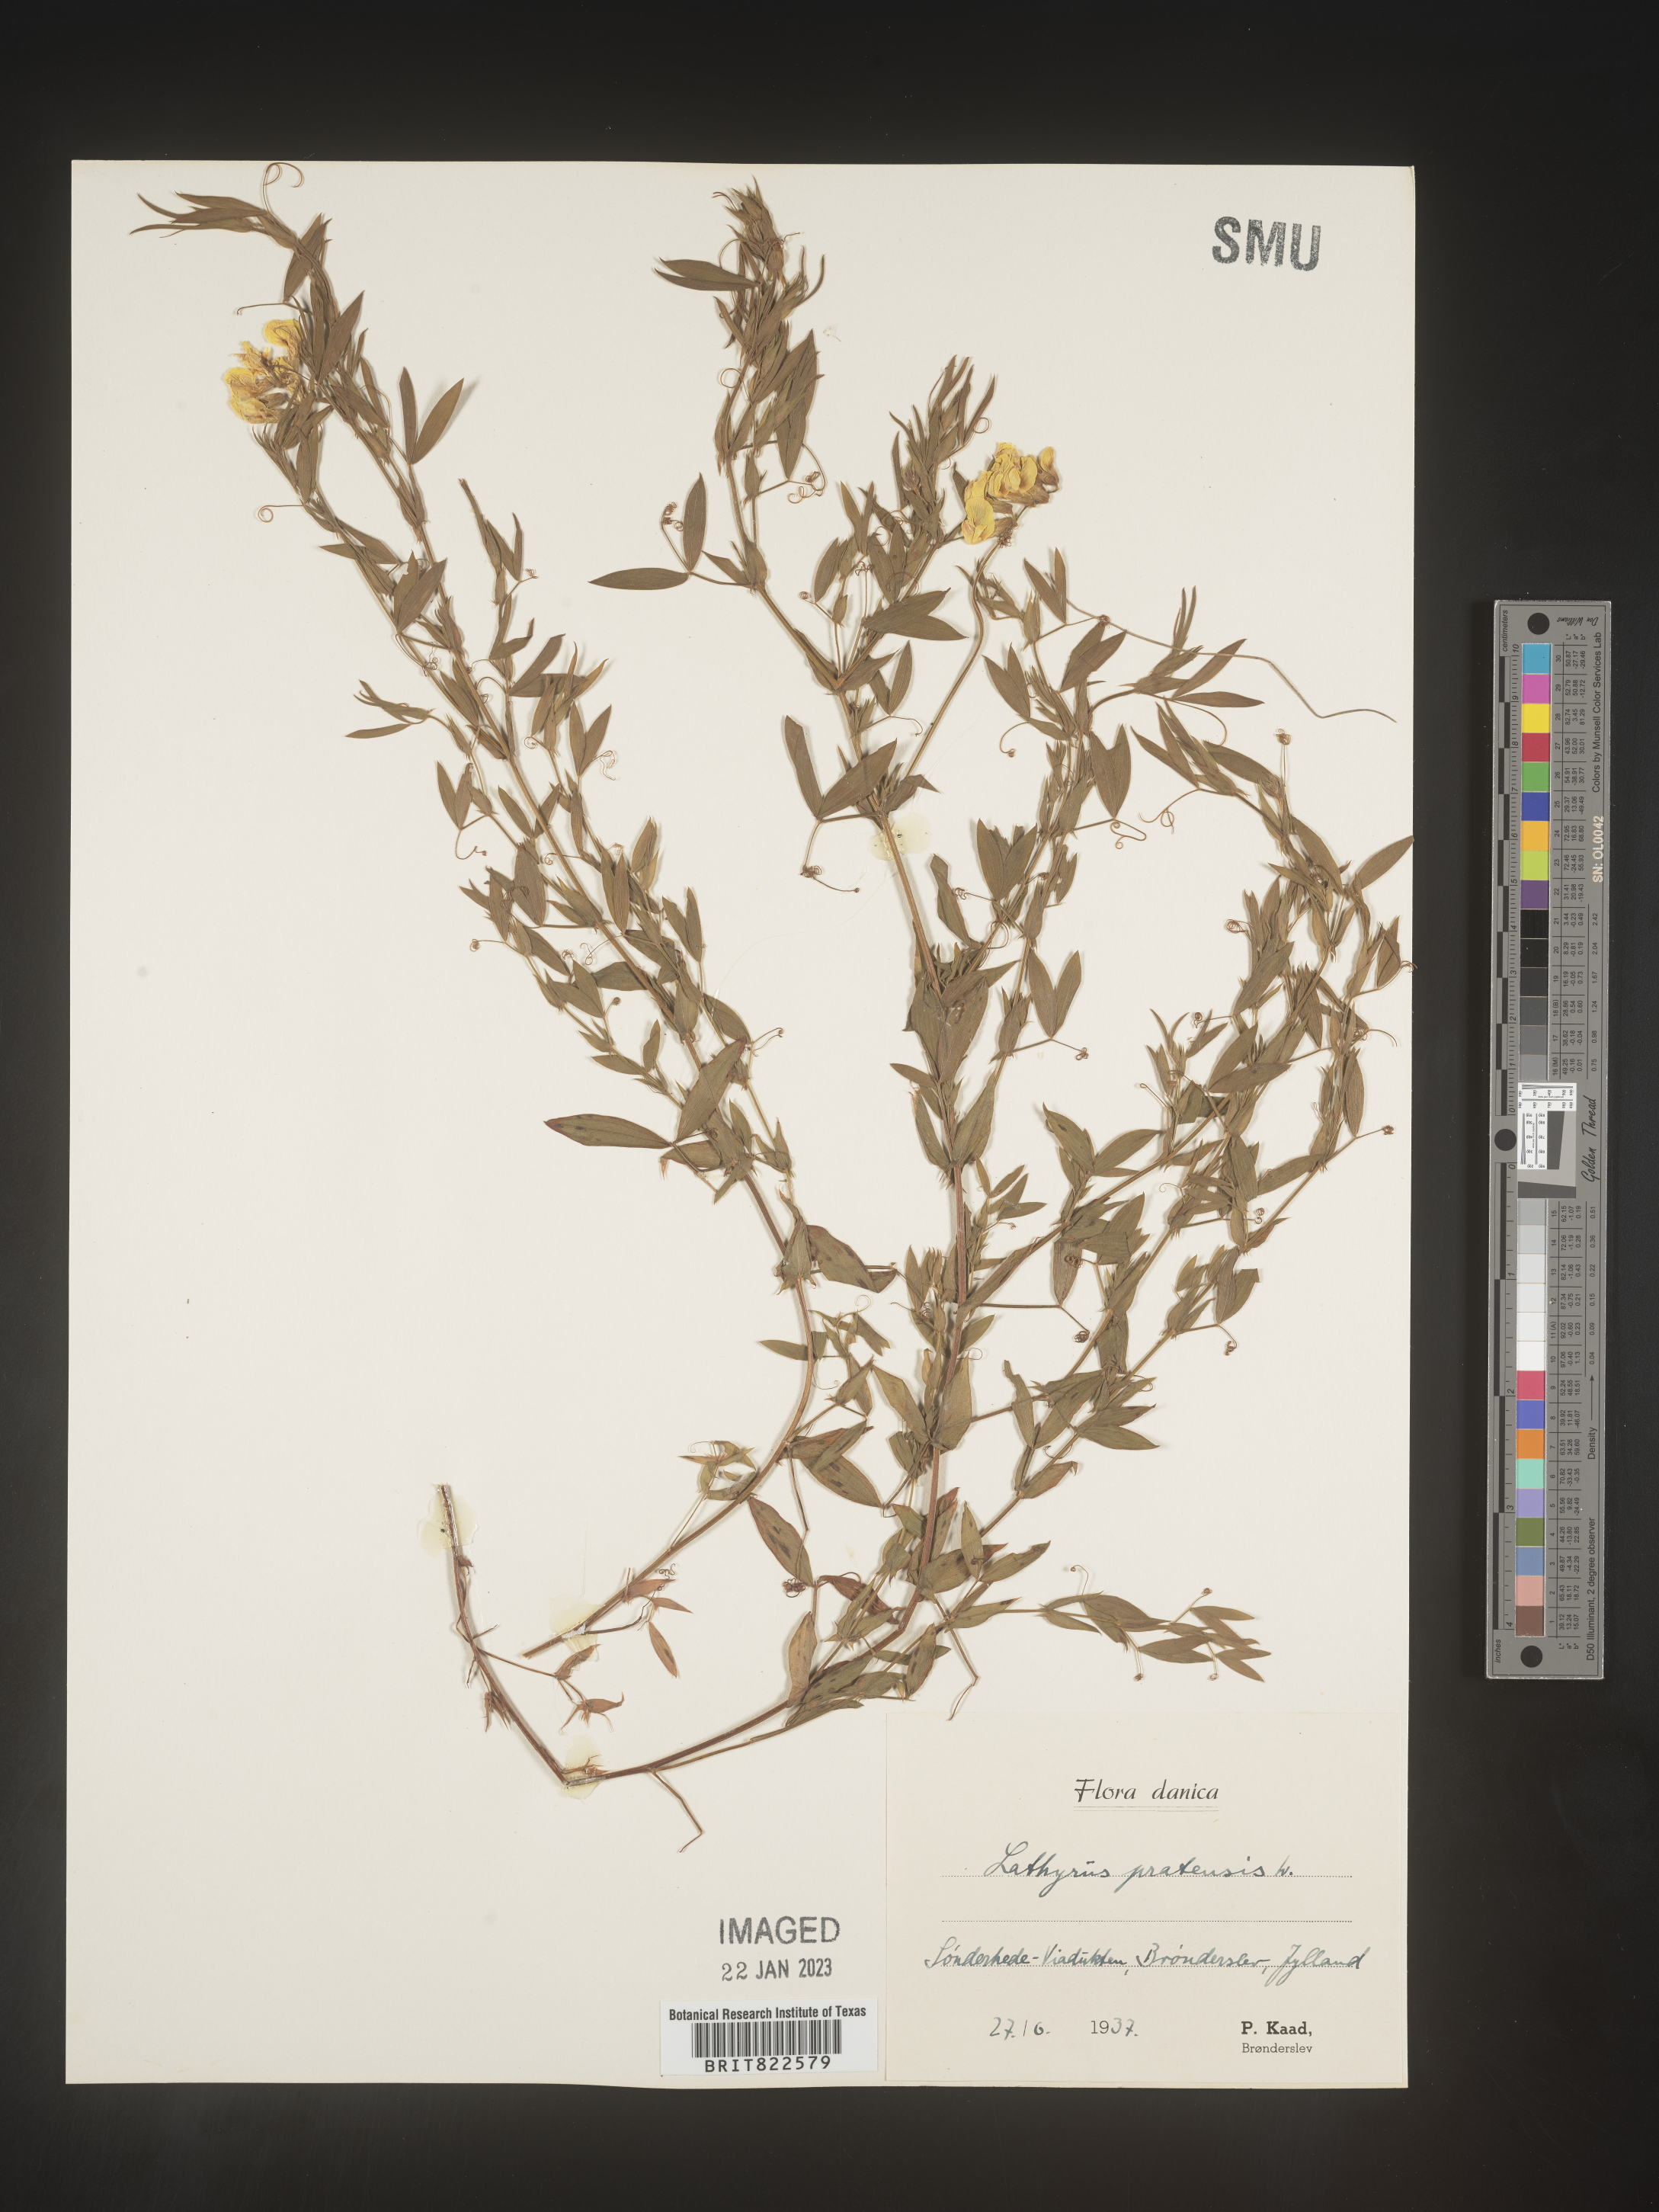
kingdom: Plantae
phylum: Tracheophyta
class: Magnoliopsida
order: Fabales
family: Fabaceae
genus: Lathyrus
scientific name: Lathyrus
